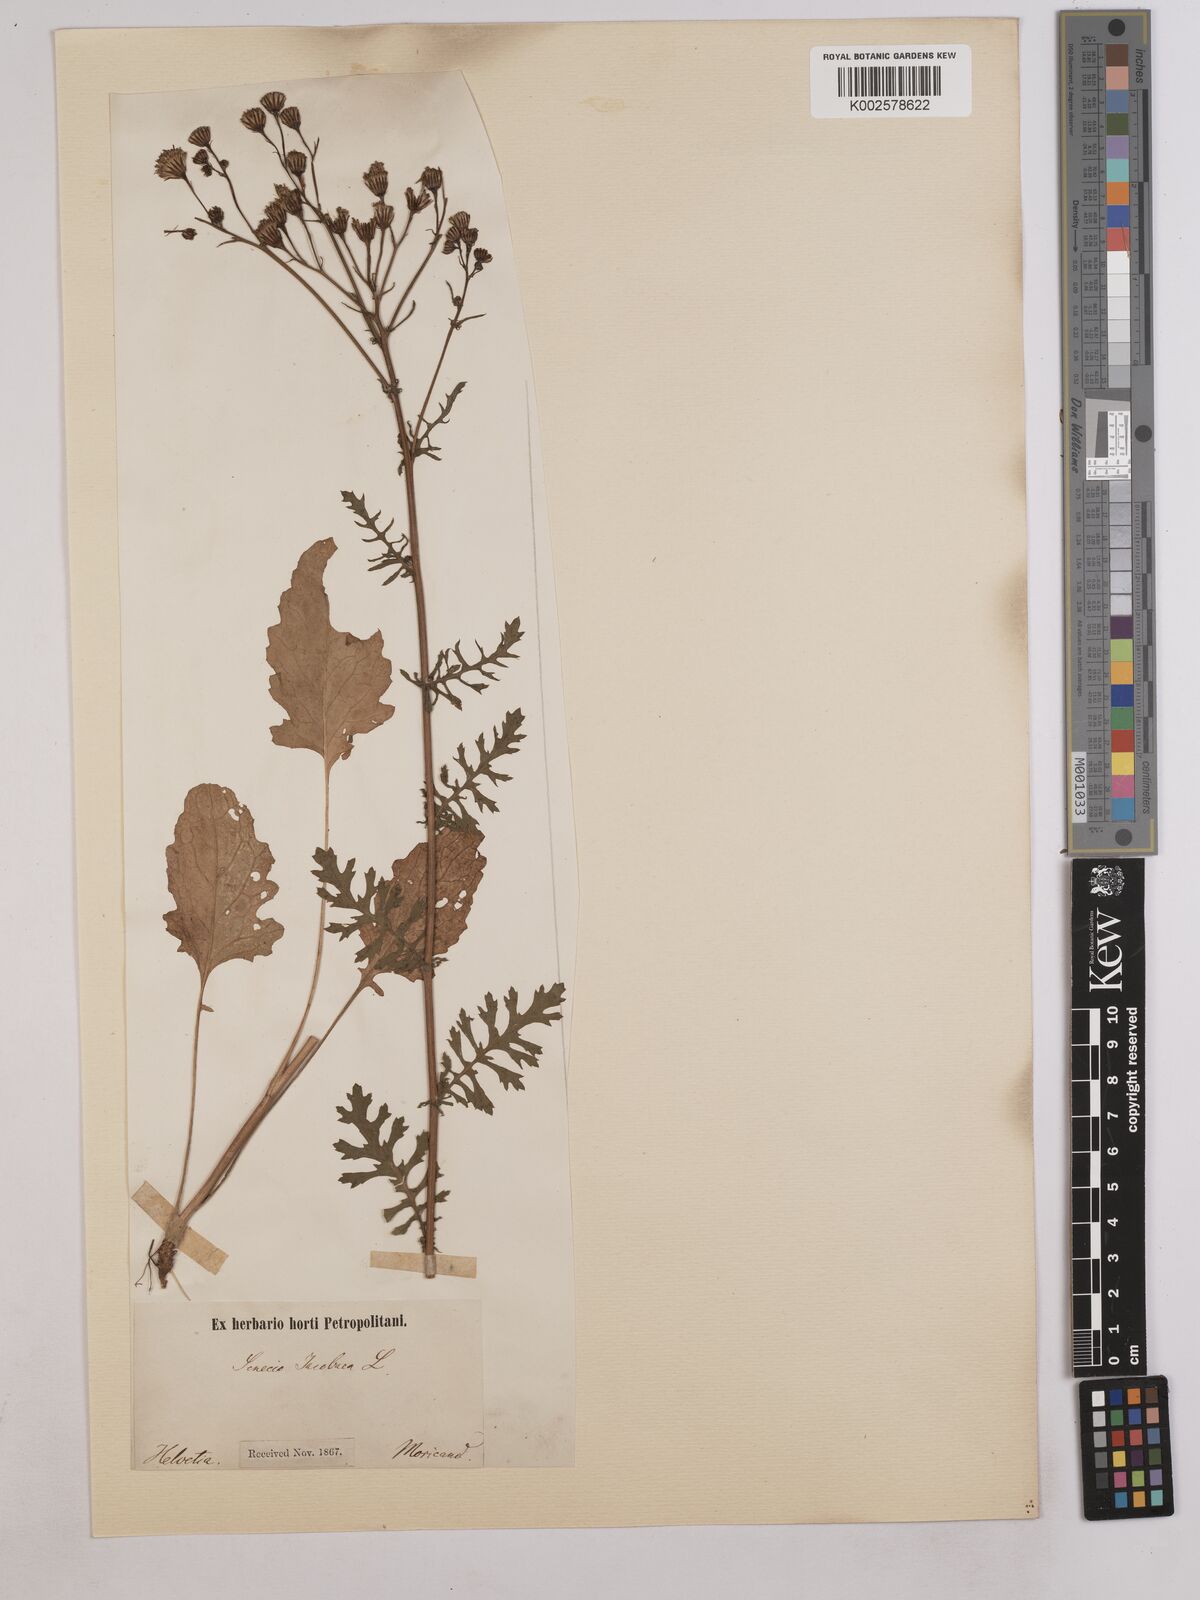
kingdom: Plantae
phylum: Tracheophyta
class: Magnoliopsida
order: Asterales
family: Asteraceae
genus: Jacobaea
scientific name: Jacobaea vulgaris
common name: Stinking willie
